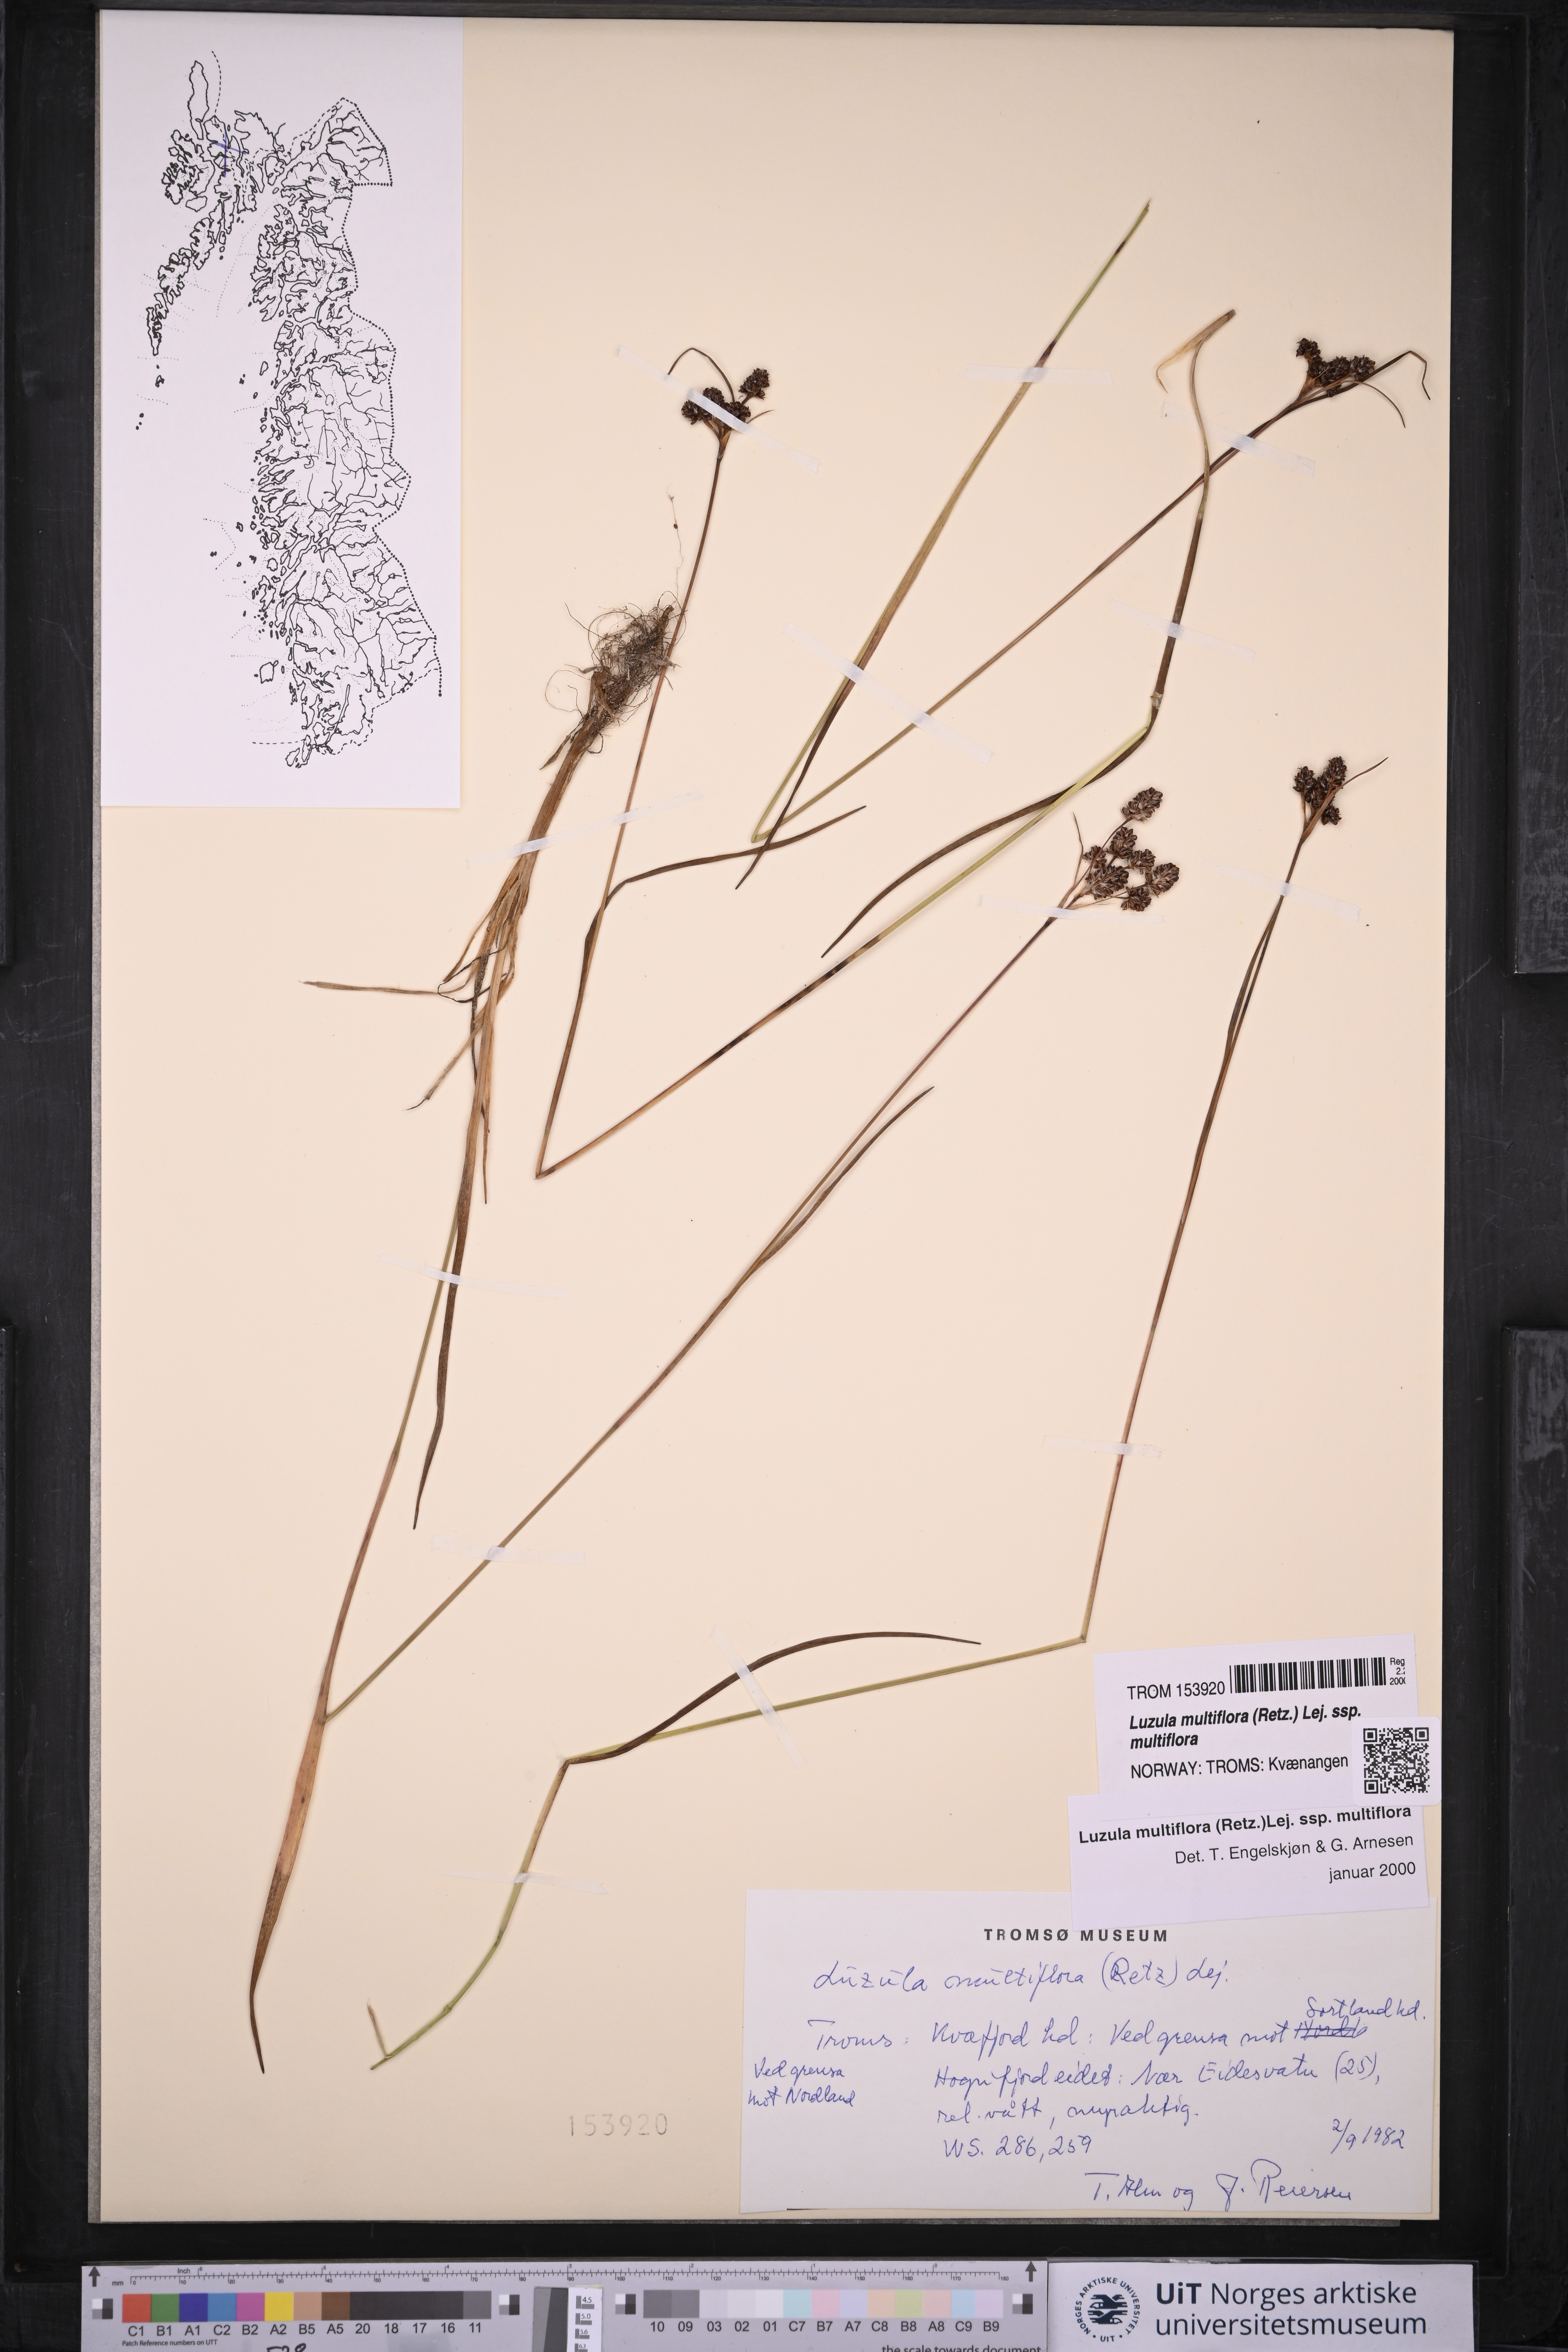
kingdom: Plantae
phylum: Tracheophyta
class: Liliopsida
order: Poales
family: Juncaceae
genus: Luzula
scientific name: Luzula multiflora
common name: Heath wood-rush
